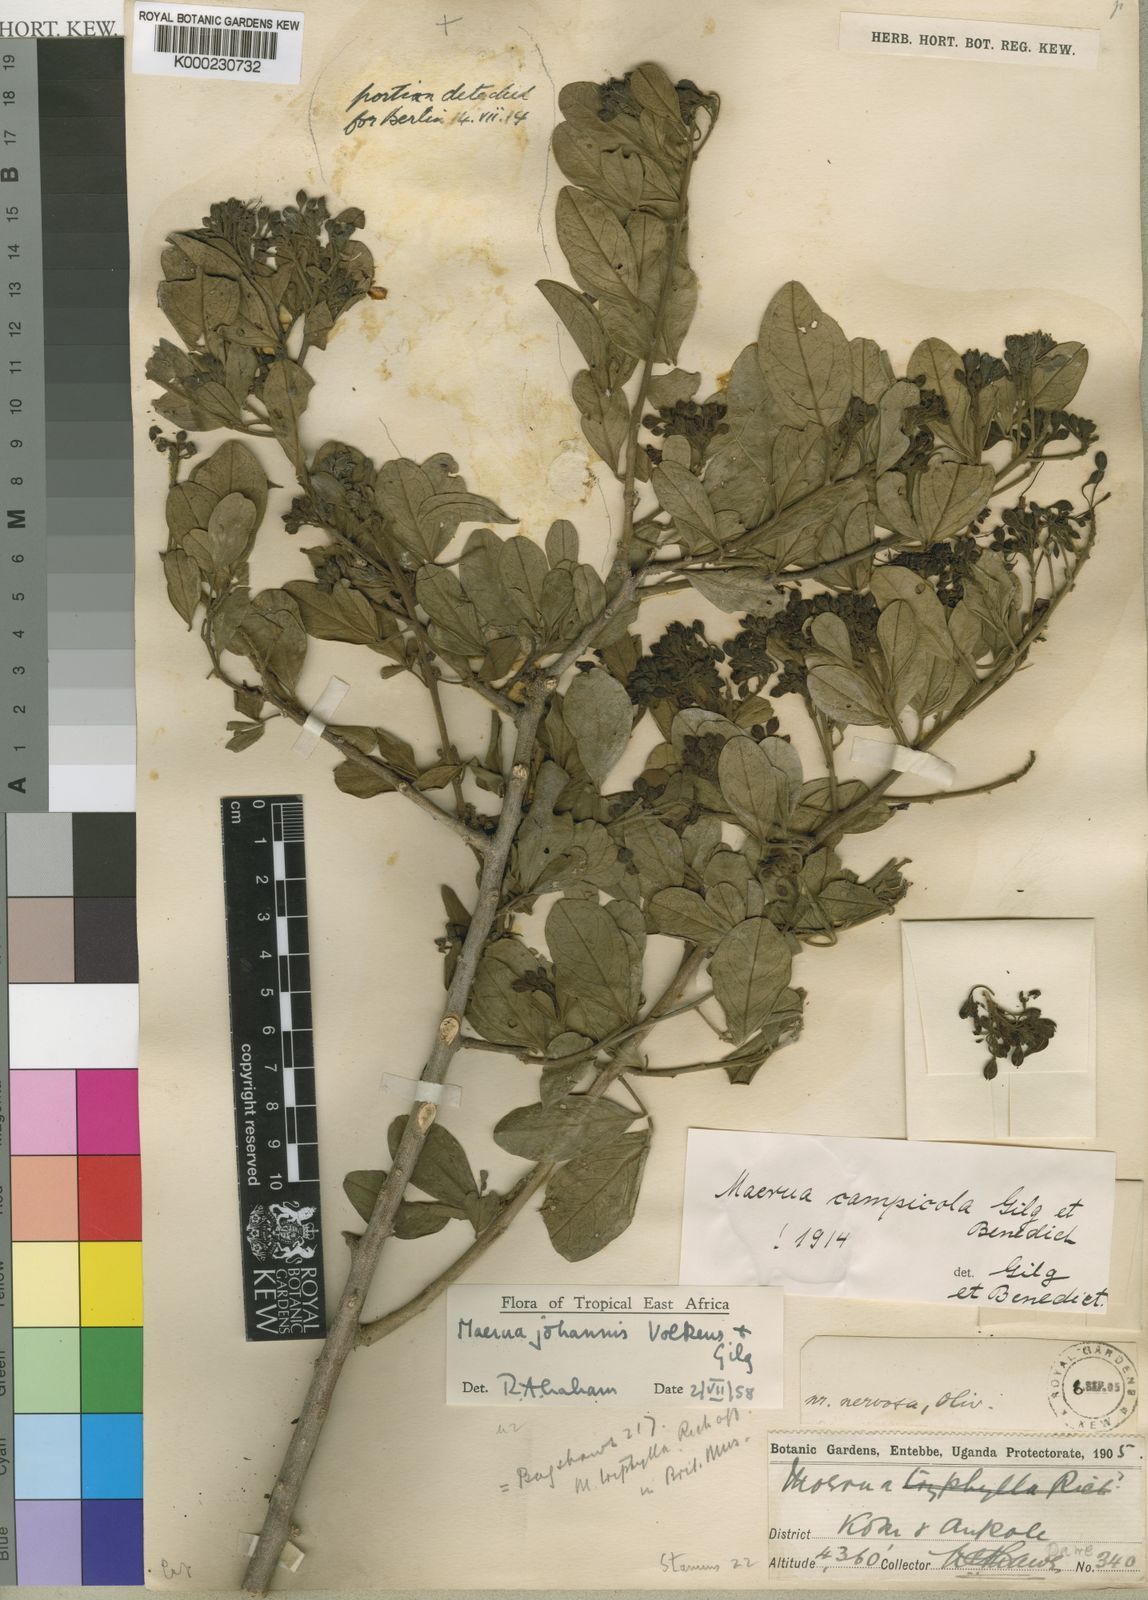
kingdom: Plantae
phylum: Tracheophyta
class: Magnoliopsida
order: Brassicales
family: Capparaceae
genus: Maerua
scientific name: Maerua
